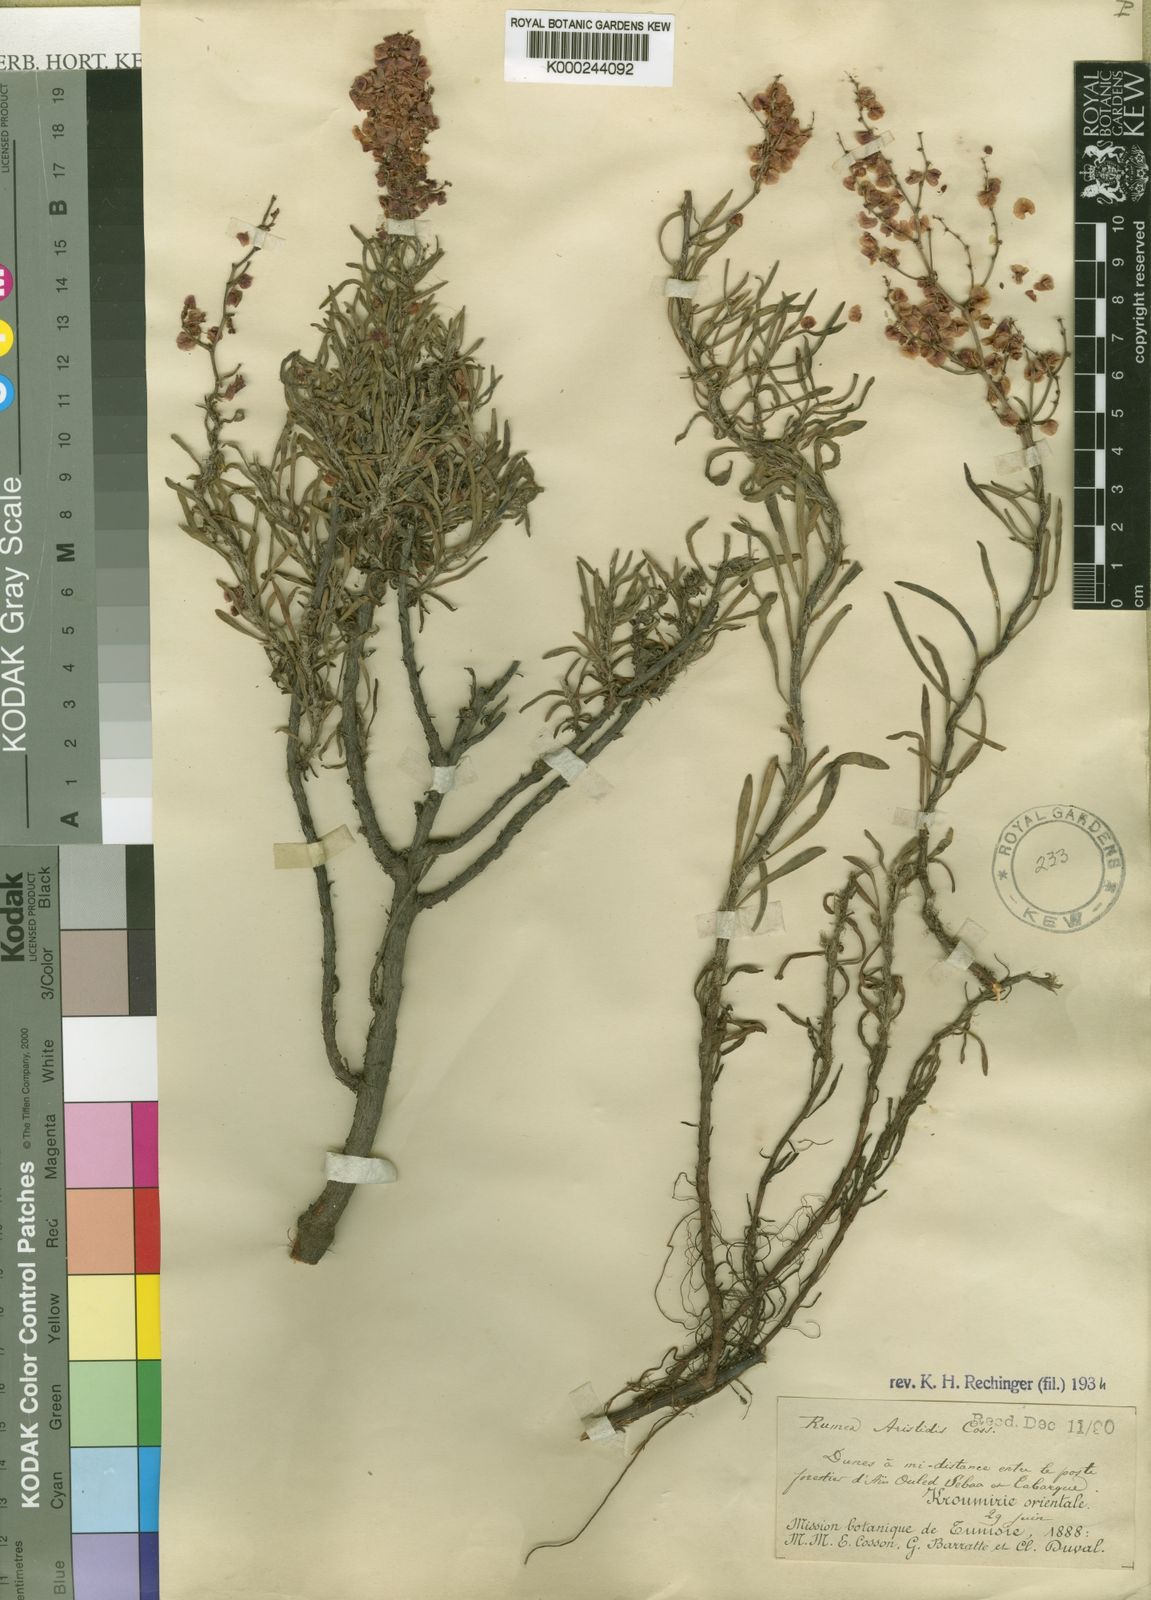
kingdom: Plantae
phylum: Tracheophyta
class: Magnoliopsida
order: Caryophyllales
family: Polygonaceae
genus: Rumex
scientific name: Rumex aristidis
